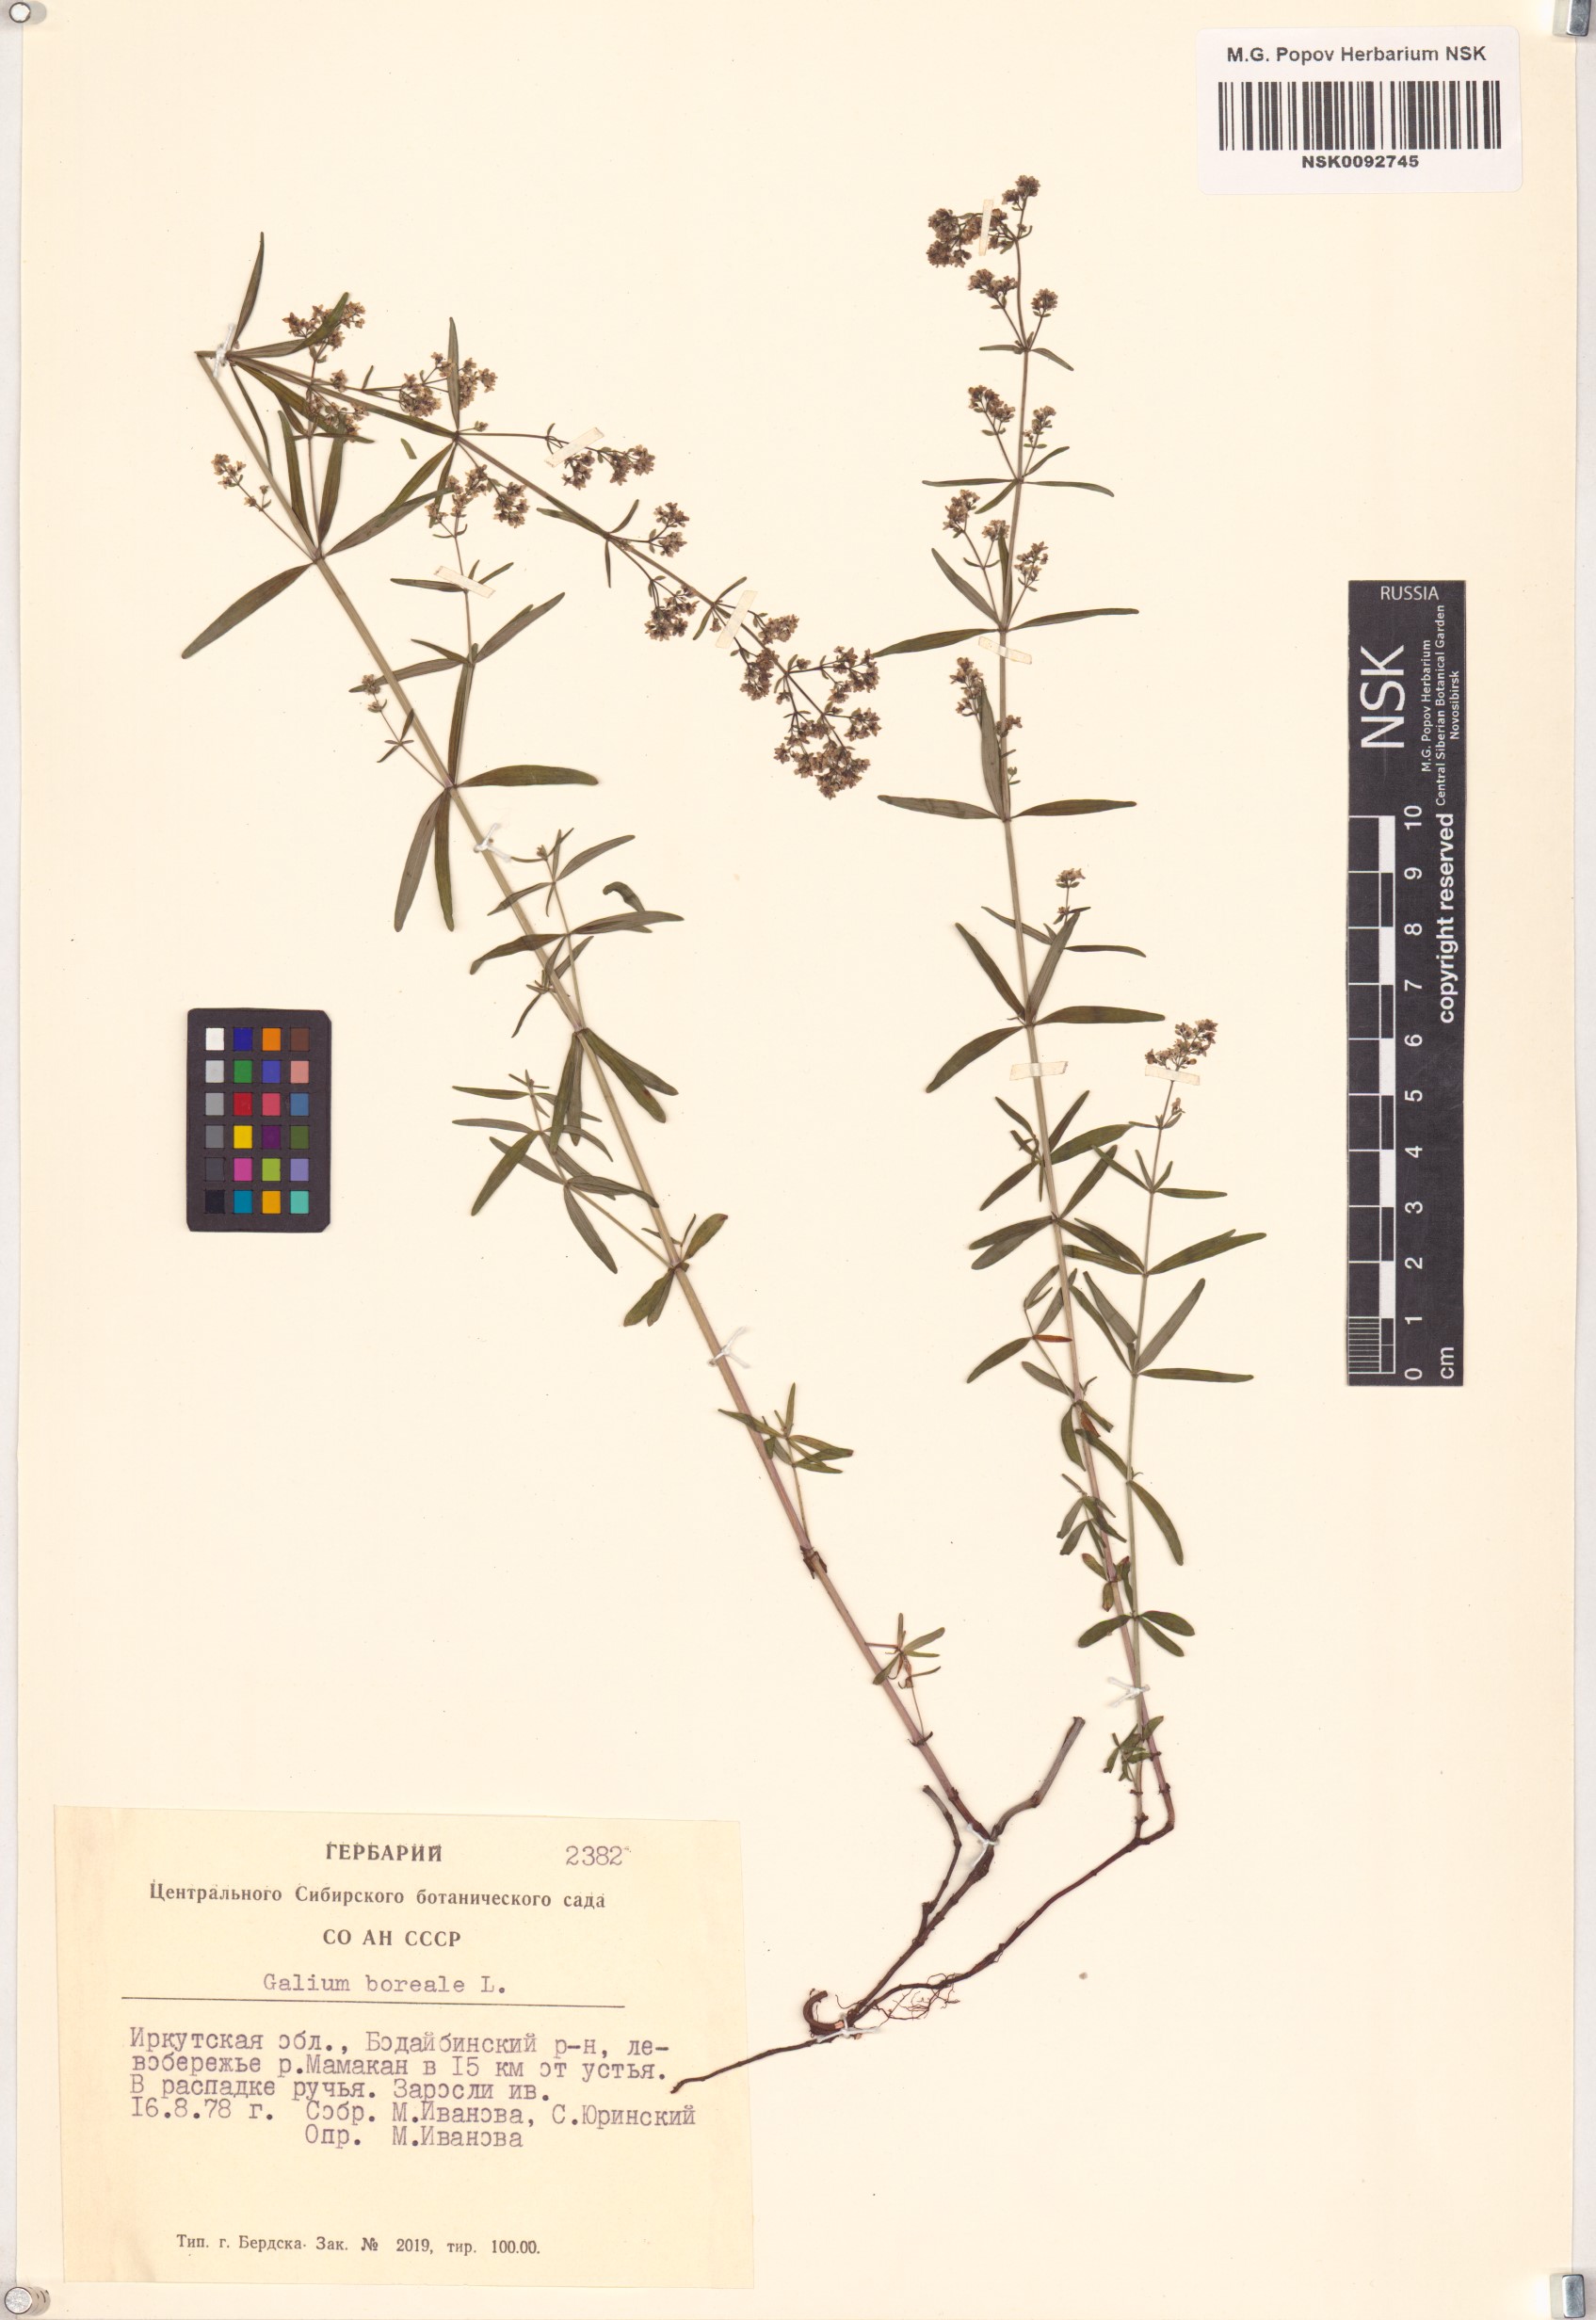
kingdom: Plantae
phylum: Tracheophyta
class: Magnoliopsida
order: Gentianales
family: Rubiaceae
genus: Galium
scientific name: Galium boreale
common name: Northern bedstraw
